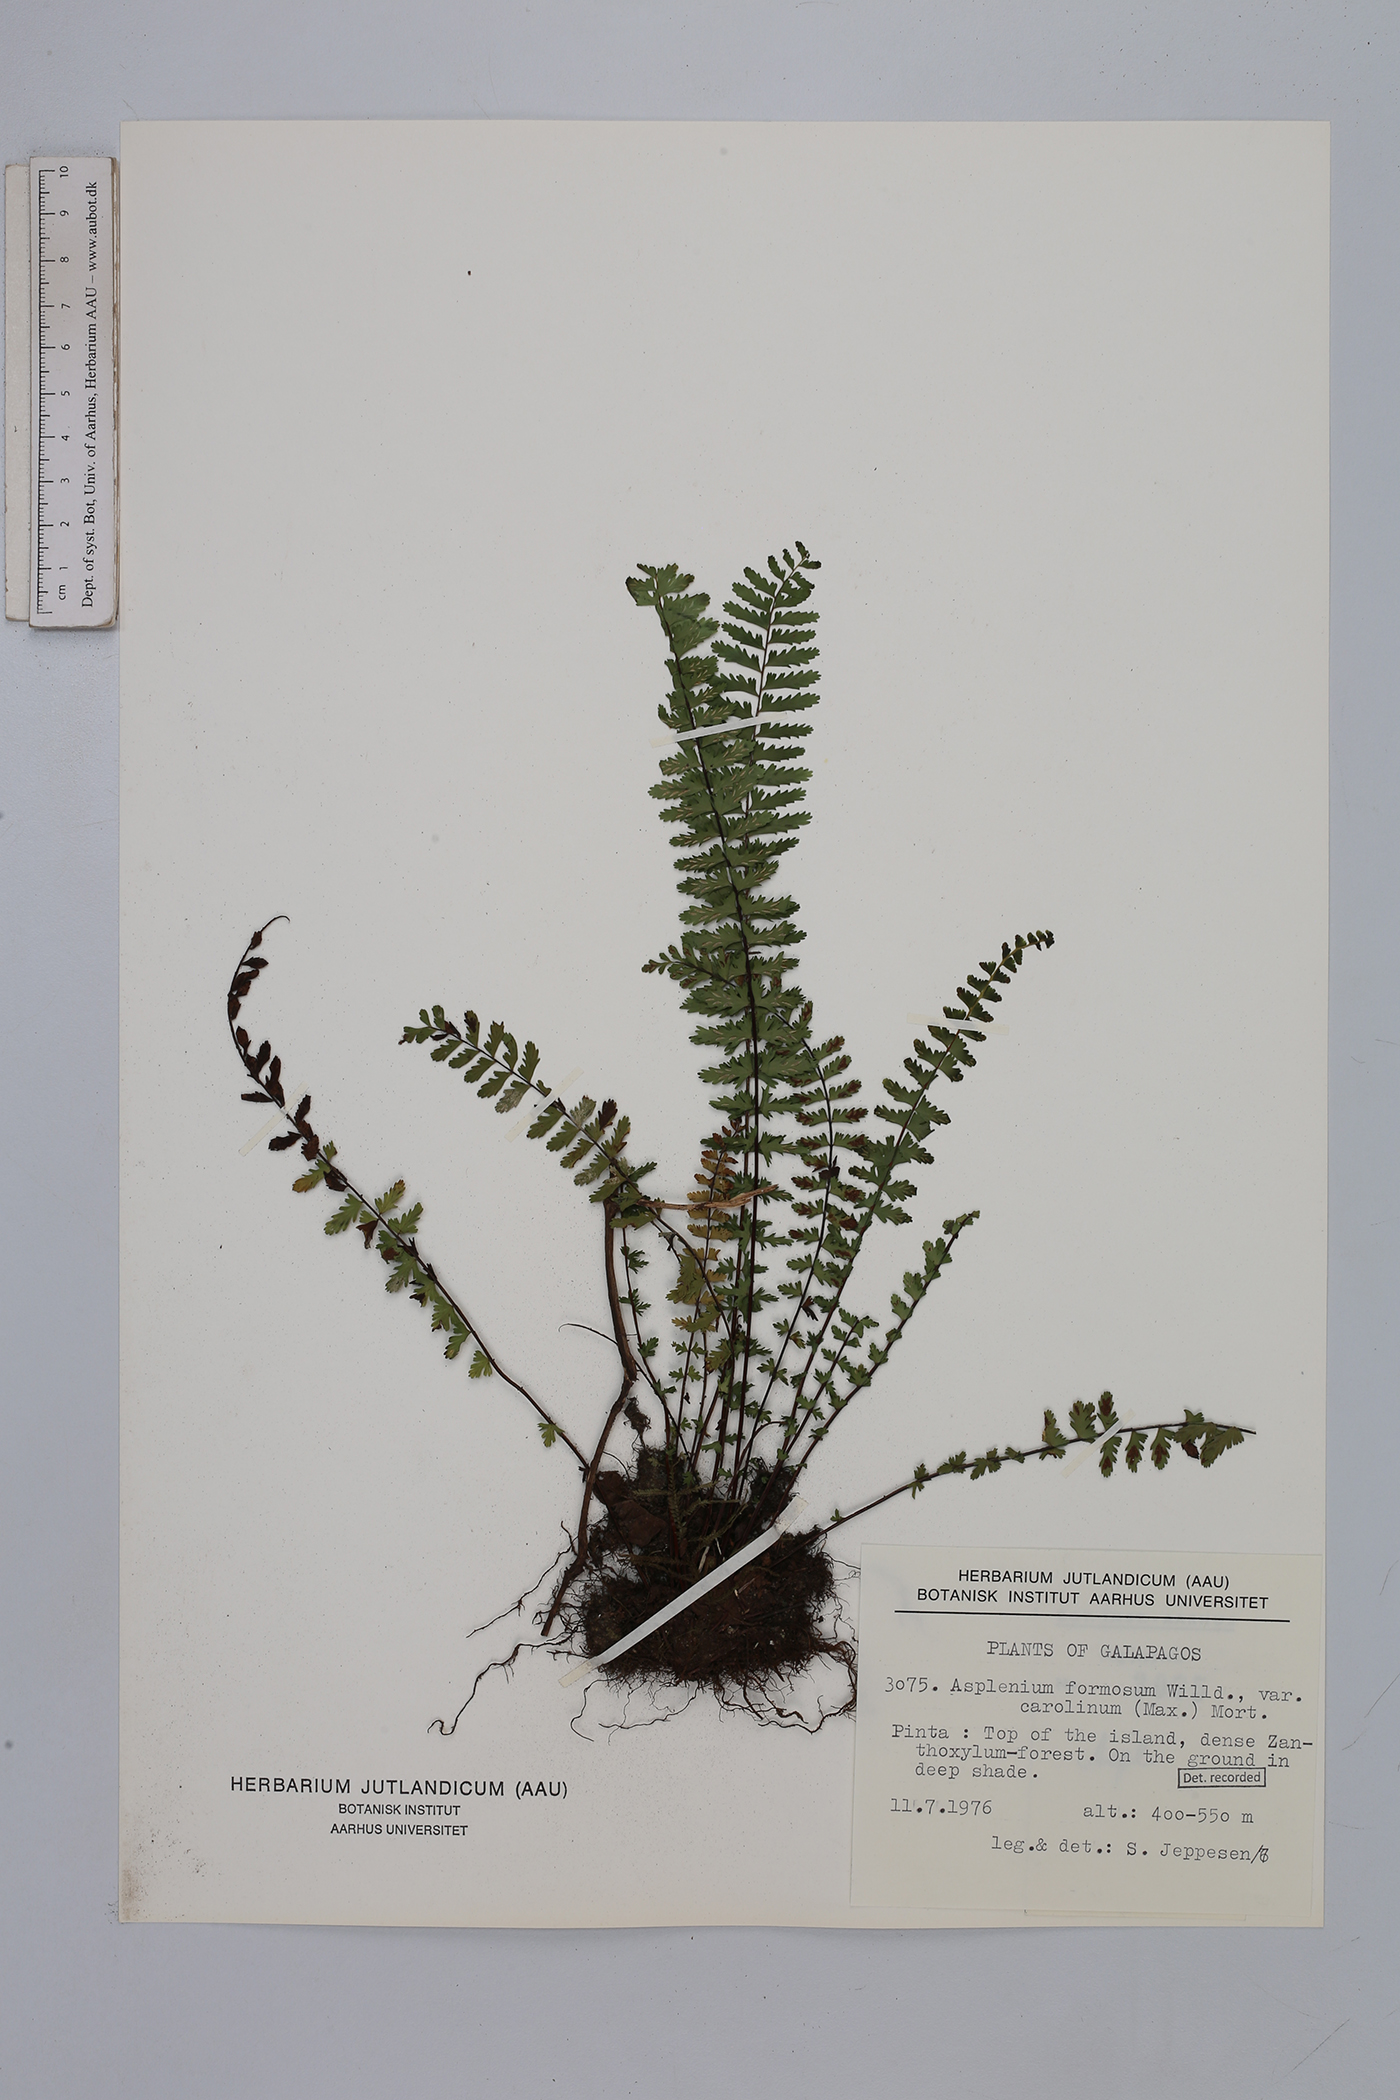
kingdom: Plantae
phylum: Tracheophyta
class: Polypodiopsida
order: Polypodiales
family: Aspleniaceae
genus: Asplenium
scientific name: Asplenium formosum
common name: Showy spleenwort
